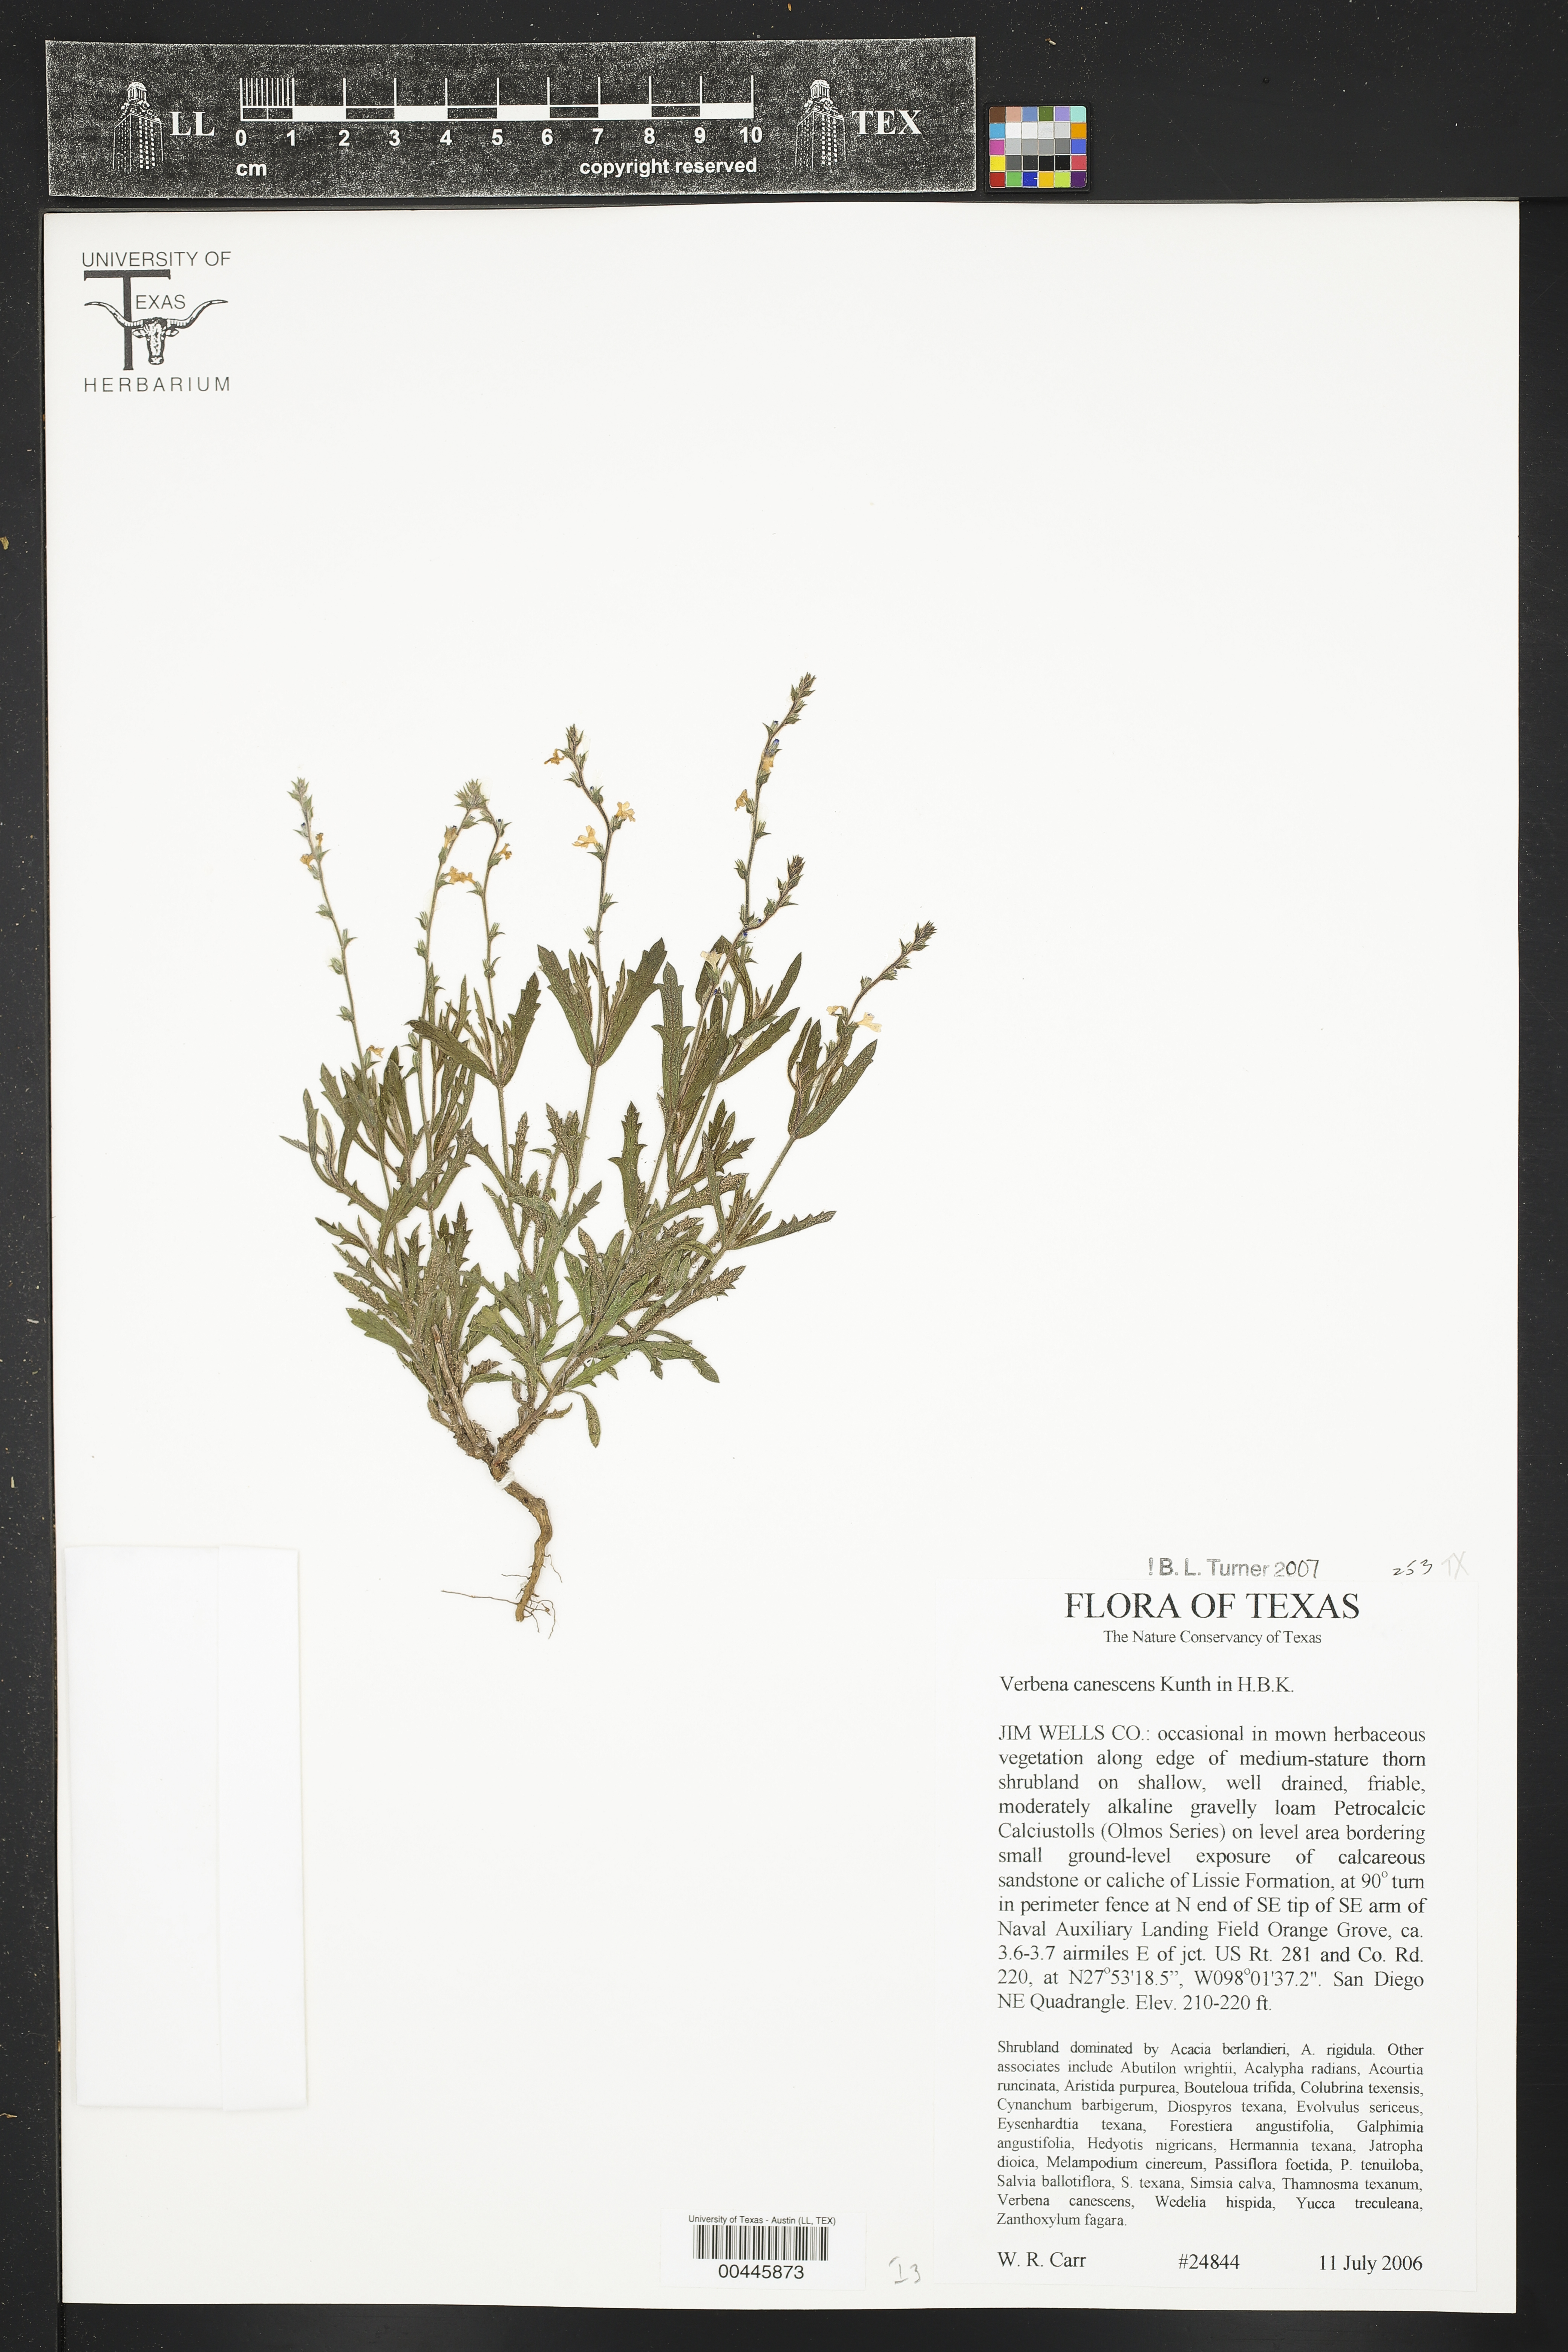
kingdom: Plantae
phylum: Tracheophyta
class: Magnoliopsida
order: Lamiales
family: Verbenaceae
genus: Verbena
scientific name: Verbena canescens
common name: Gray vervain
